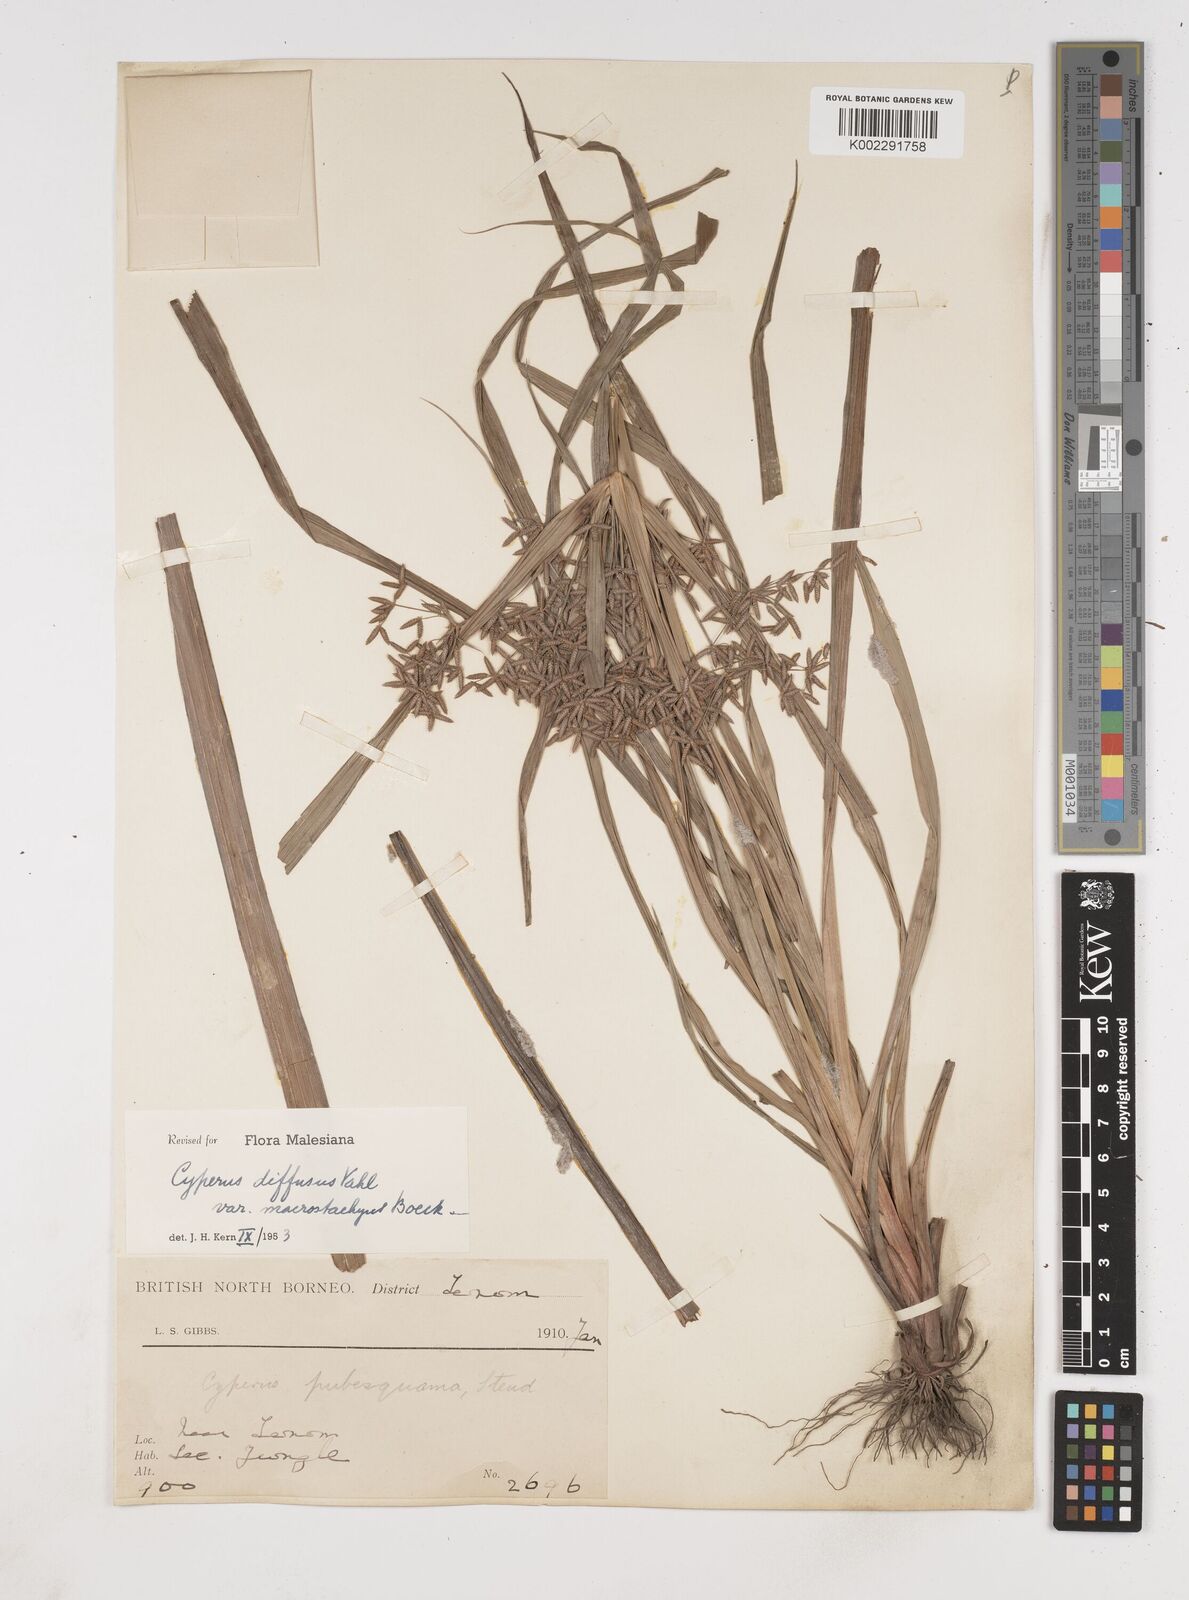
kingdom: Plantae
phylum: Tracheophyta
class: Liliopsida
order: Poales
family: Cyperaceae
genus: Cyperus
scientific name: Cyperus diffusus
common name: Dwarf umbrella grass
